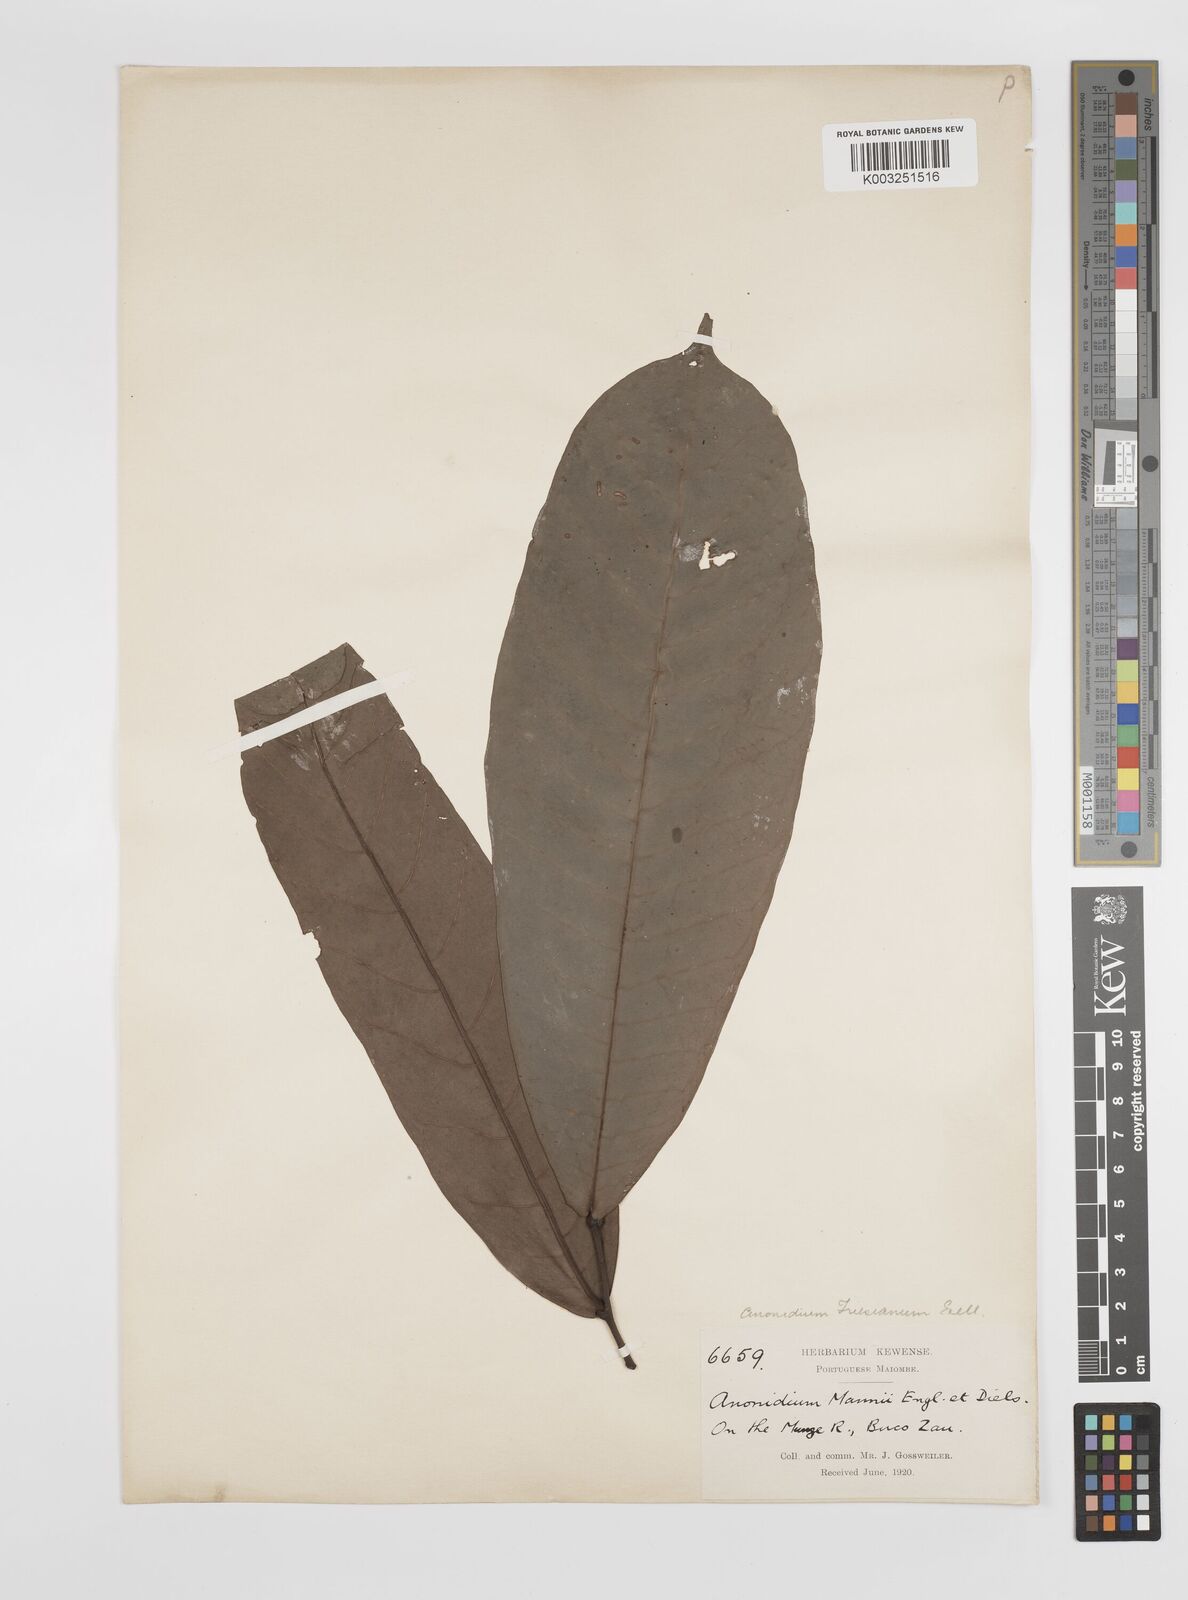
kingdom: Plantae
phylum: Tracheophyta
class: Magnoliopsida
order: Magnoliales
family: Annonaceae
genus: Anonidium
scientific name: Anonidium mannii
